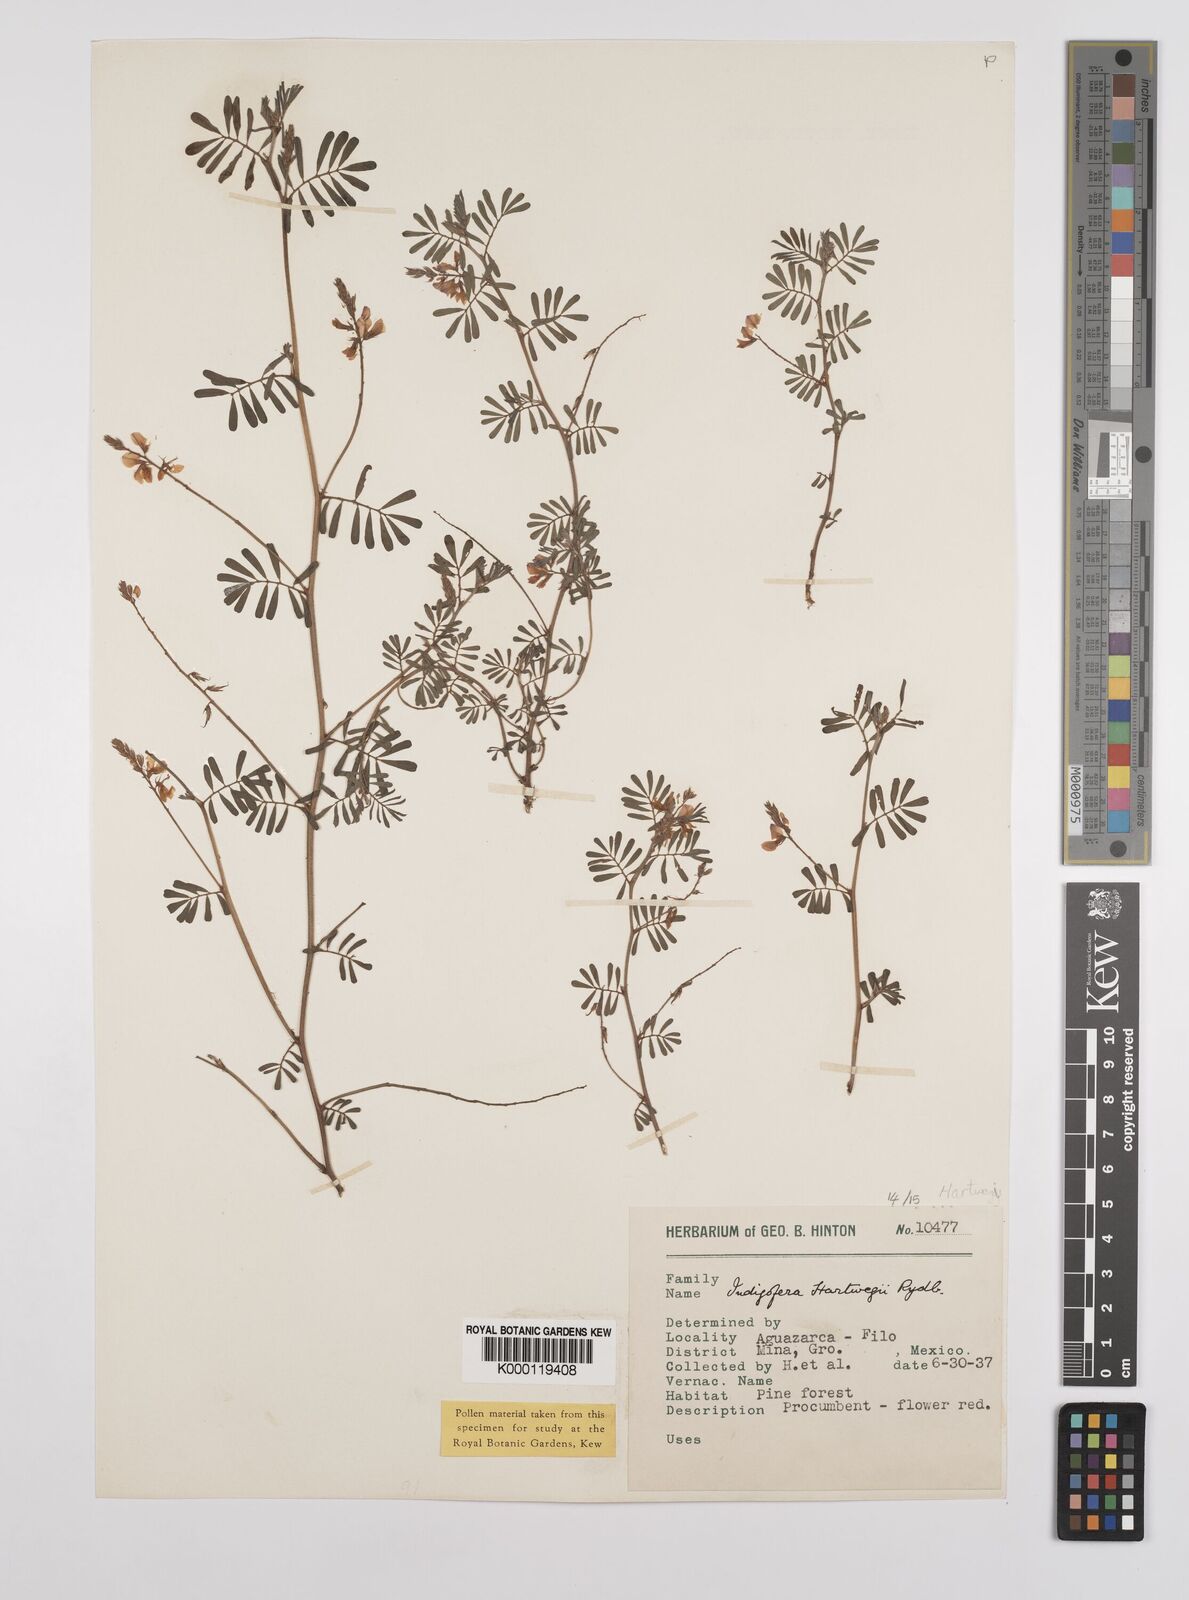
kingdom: Plantae
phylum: Tracheophyta
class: Magnoliopsida
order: Fabales
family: Fabaceae
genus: Indigofera
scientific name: Indigofera miniata
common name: Coast indigo
